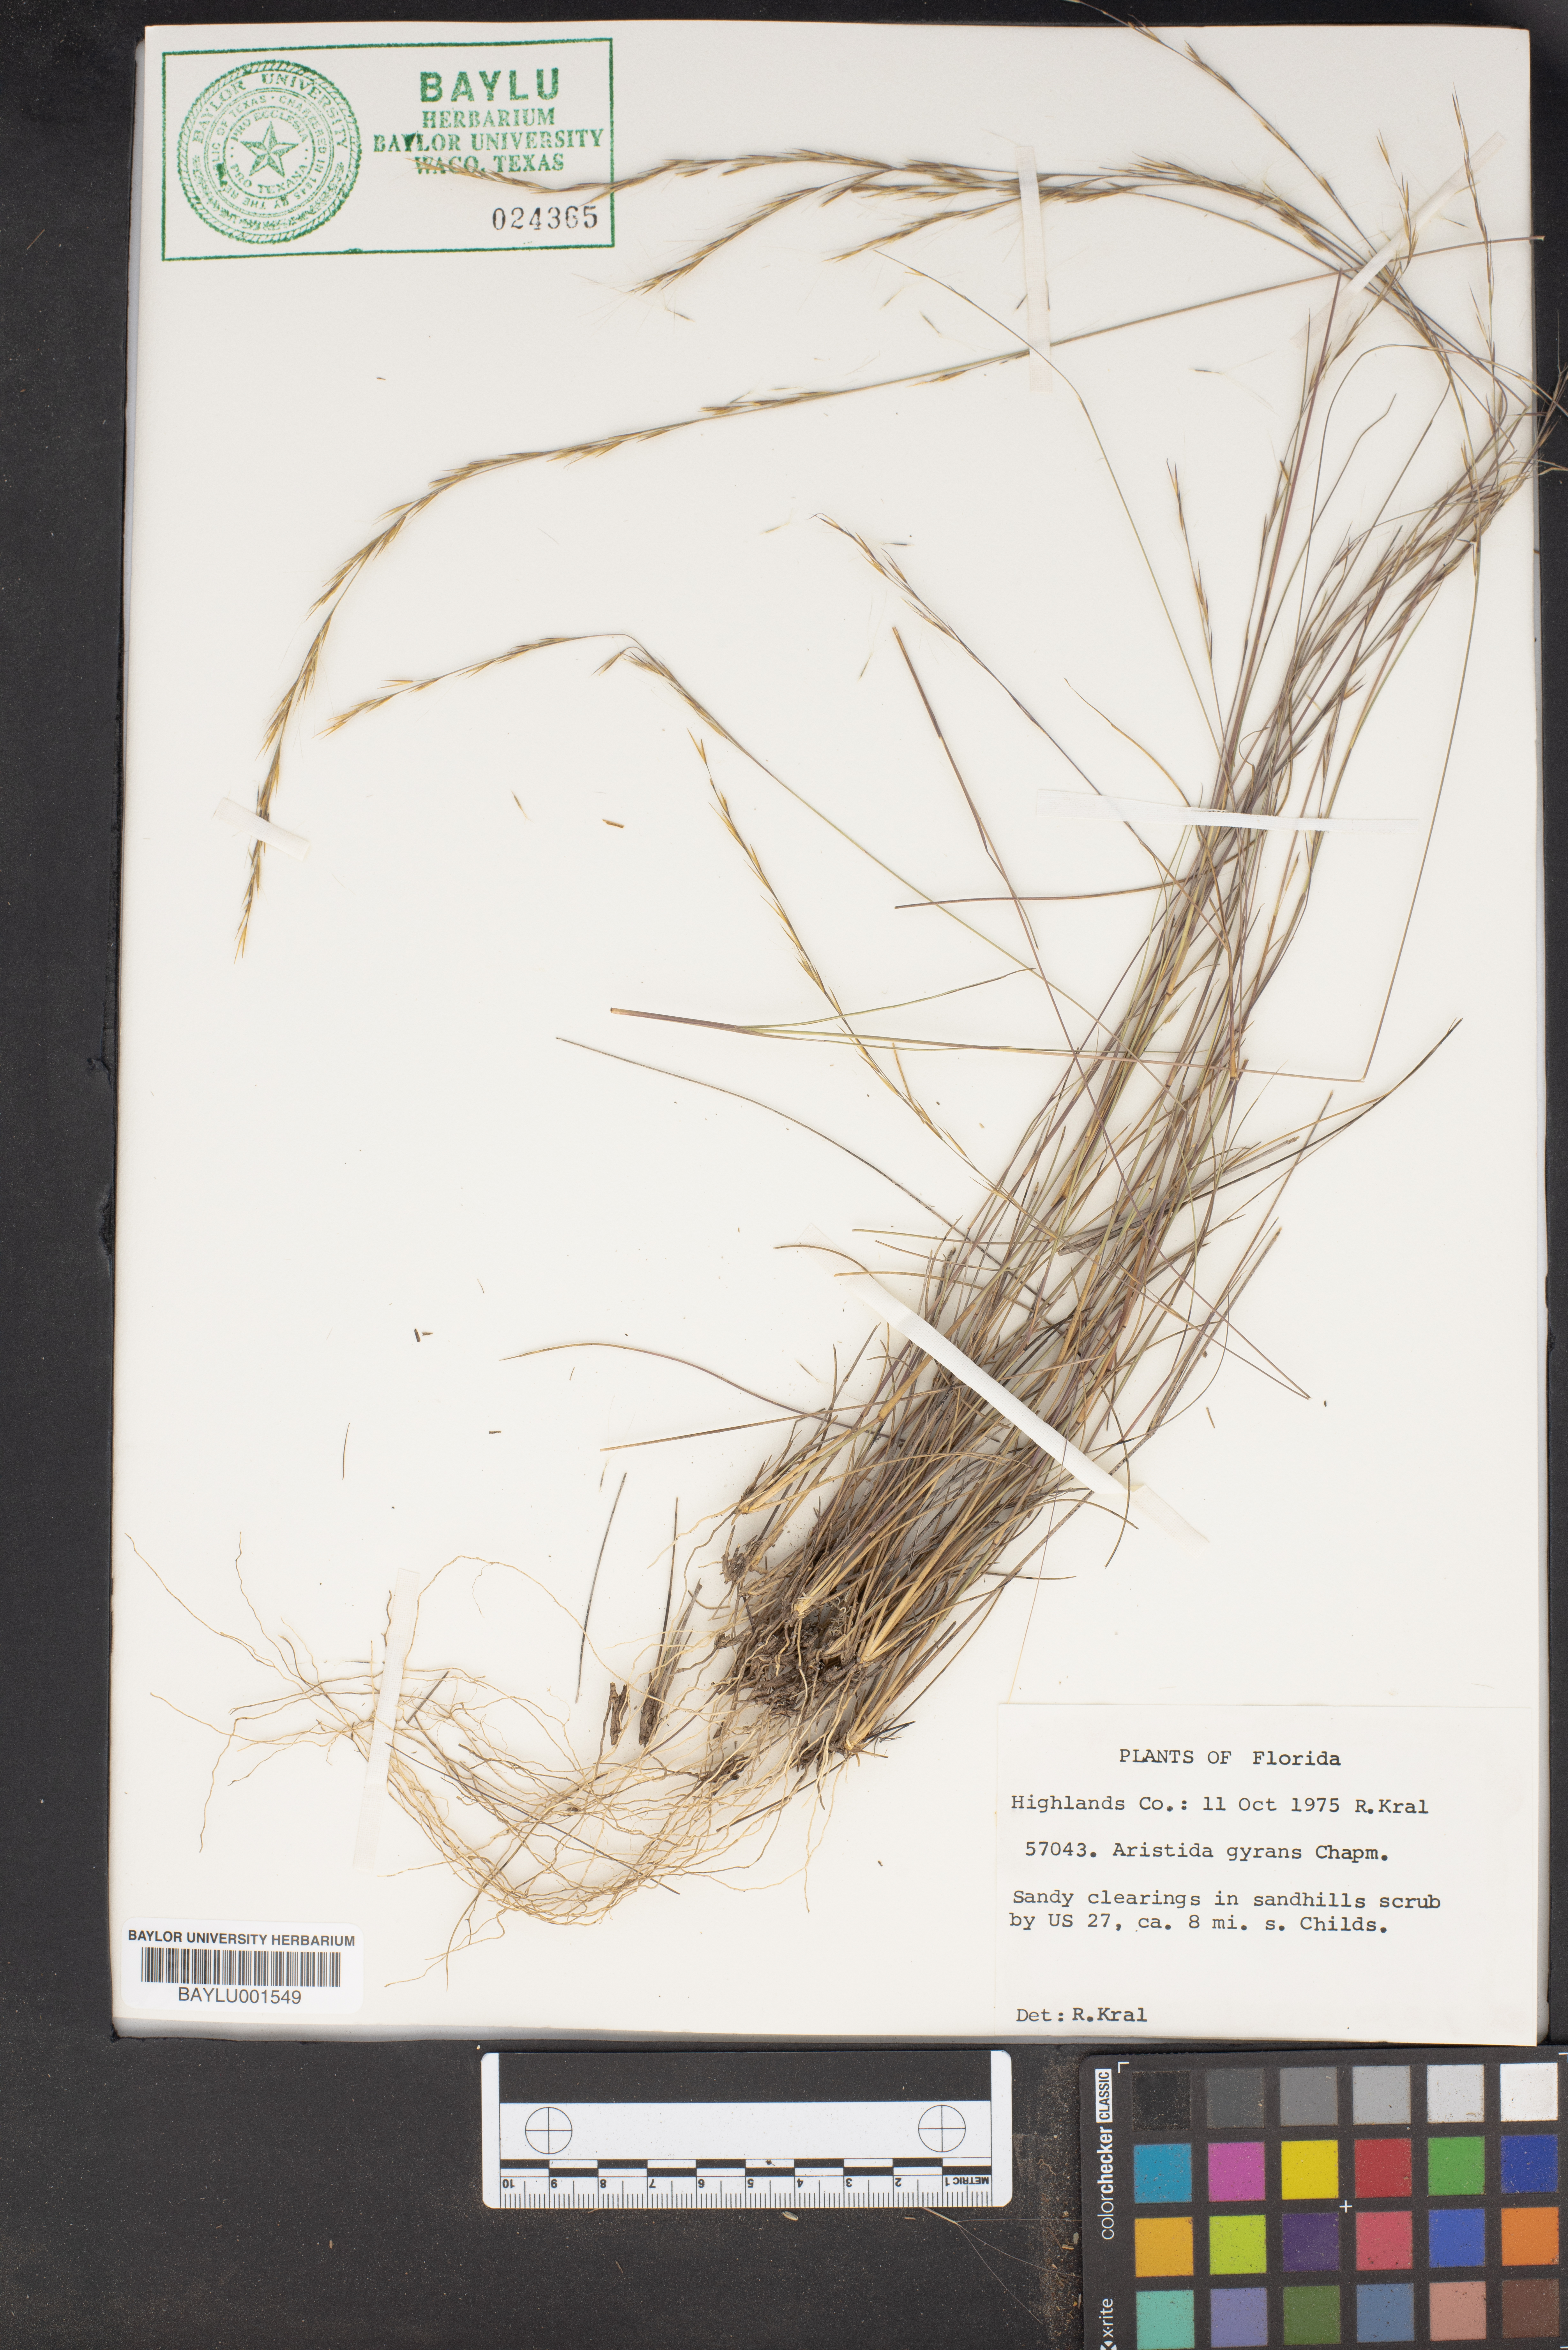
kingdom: Plantae
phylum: Tracheophyta
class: Liliopsida
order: Poales
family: Poaceae
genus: Aristida
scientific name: Aristida gyrans
